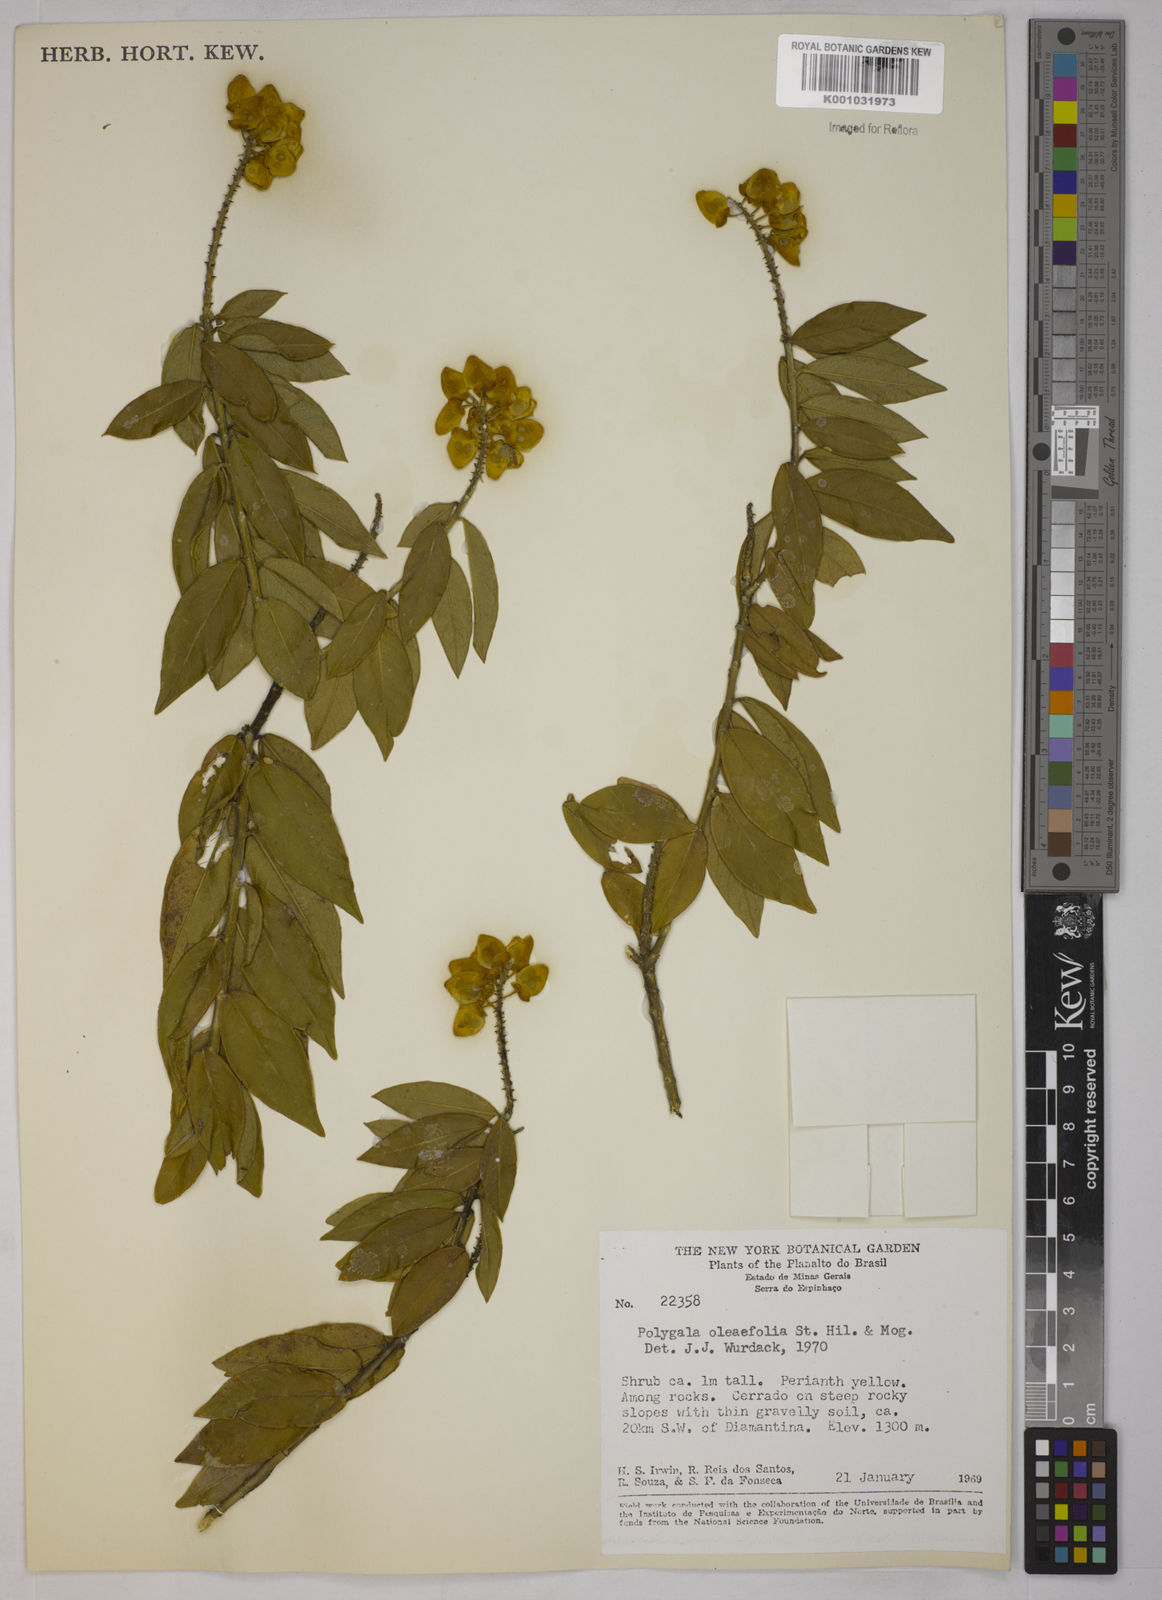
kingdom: Plantae
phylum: Tracheophyta
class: Magnoliopsida
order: Fabales
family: Polygalaceae
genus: Caamembeca
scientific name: Caamembeca oleifolia
